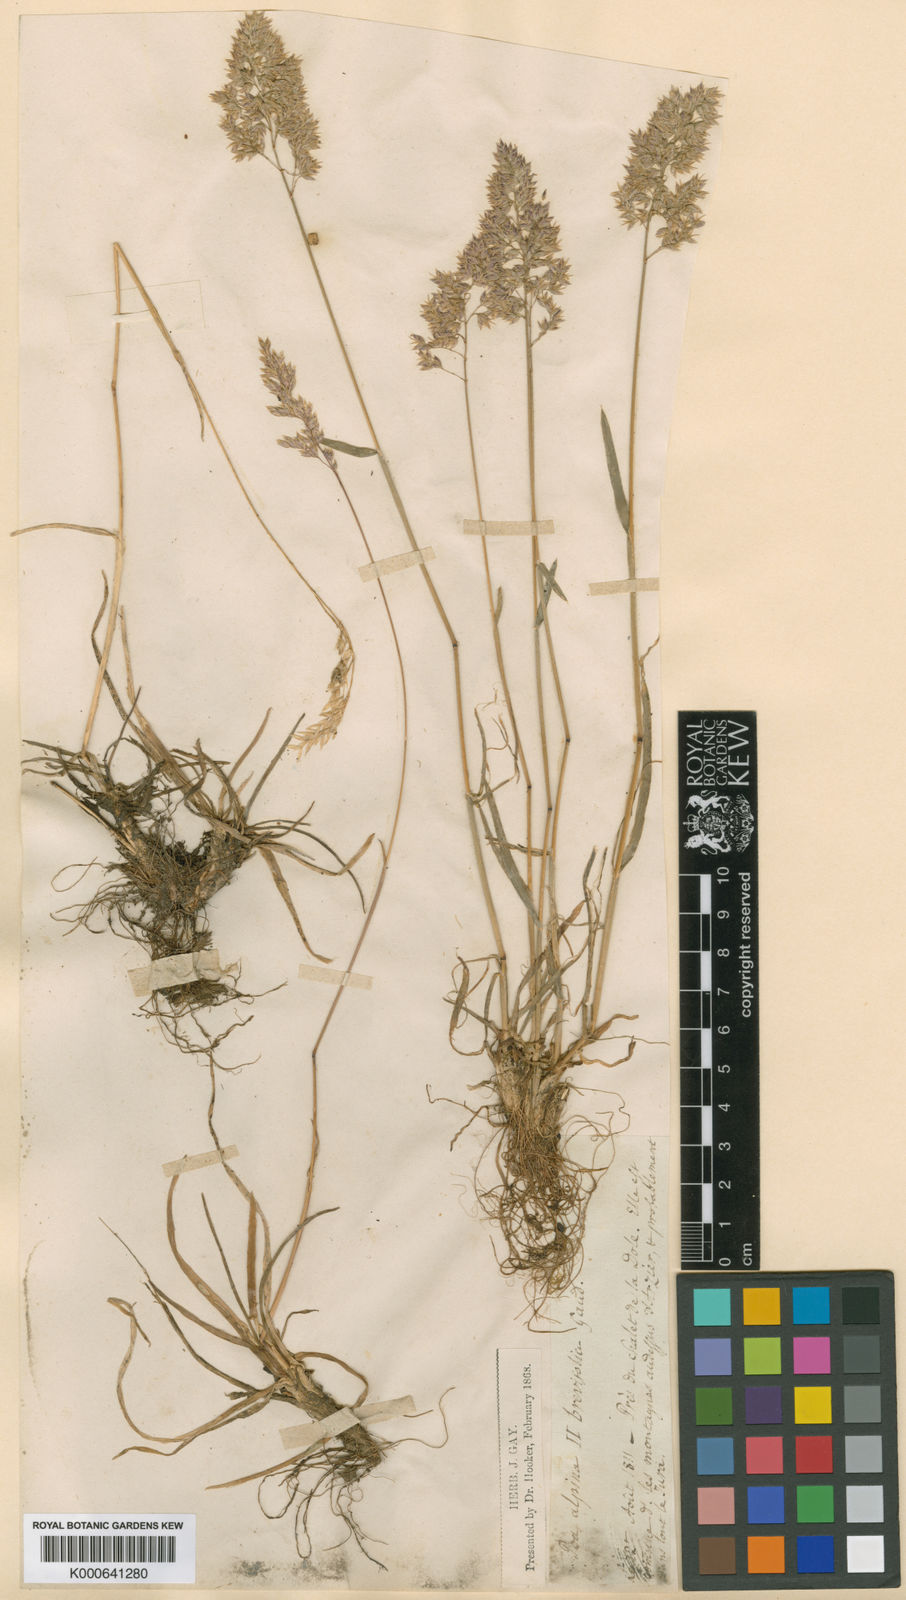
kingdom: Plantae
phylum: Tracheophyta
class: Liliopsida
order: Poales
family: Poaceae
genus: Poa
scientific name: Poa alpina
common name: Alpine bluegrass
